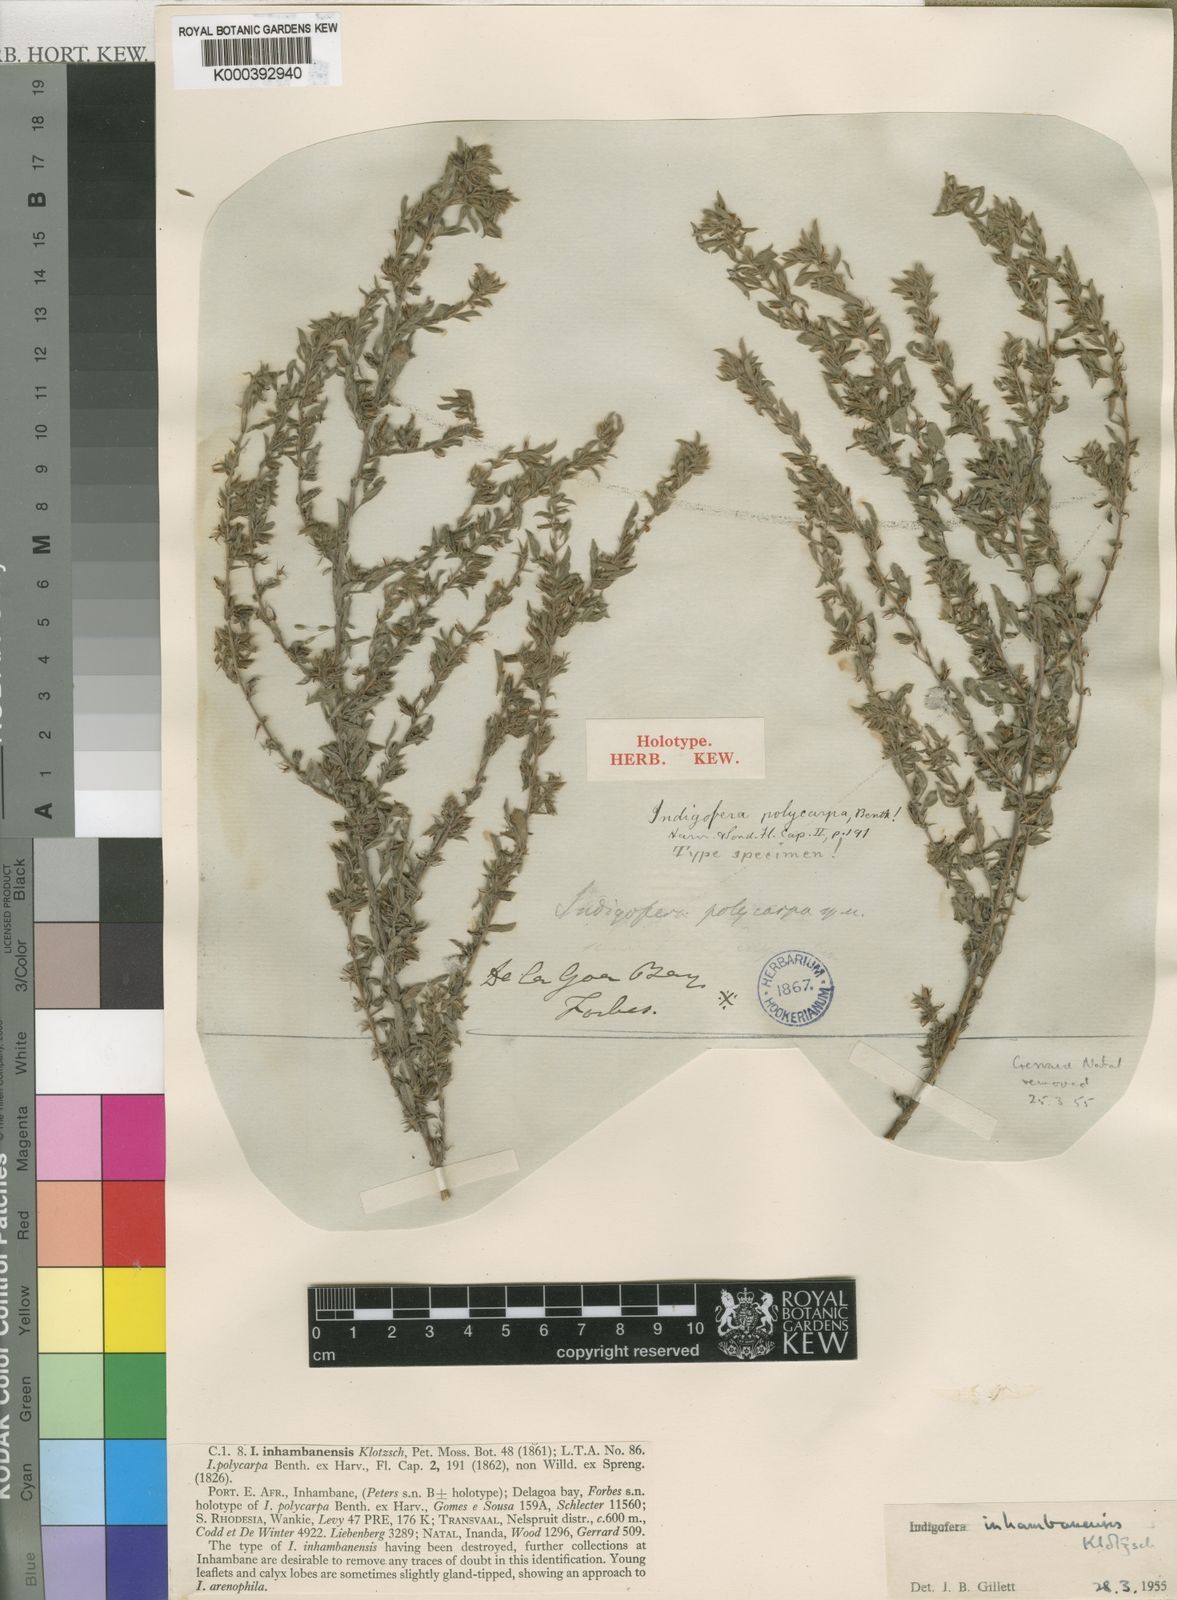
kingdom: Plantae
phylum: Tracheophyta
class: Magnoliopsida
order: Fabales
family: Fabaceae
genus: Indigofera
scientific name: Indigofera inhambanensis
